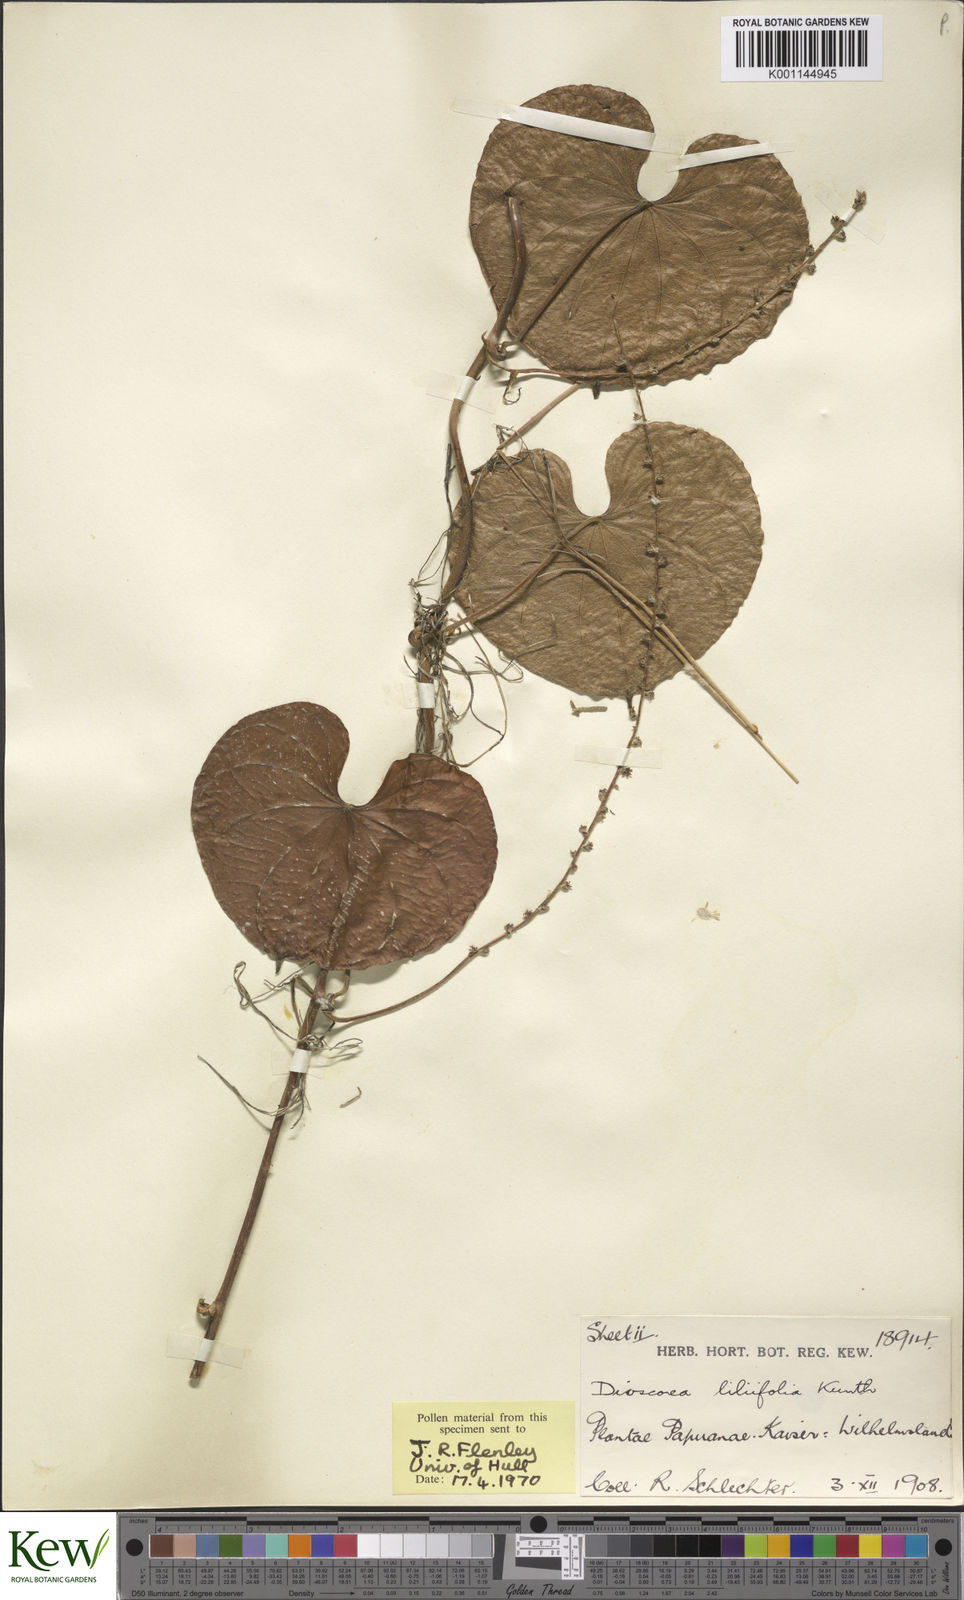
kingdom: Plantae
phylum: Tracheophyta
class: Liliopsida
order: Dioscoreales
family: Dioscoreaceae
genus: Dioscorea
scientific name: Dioscorea esculenta
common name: Chinese yam
